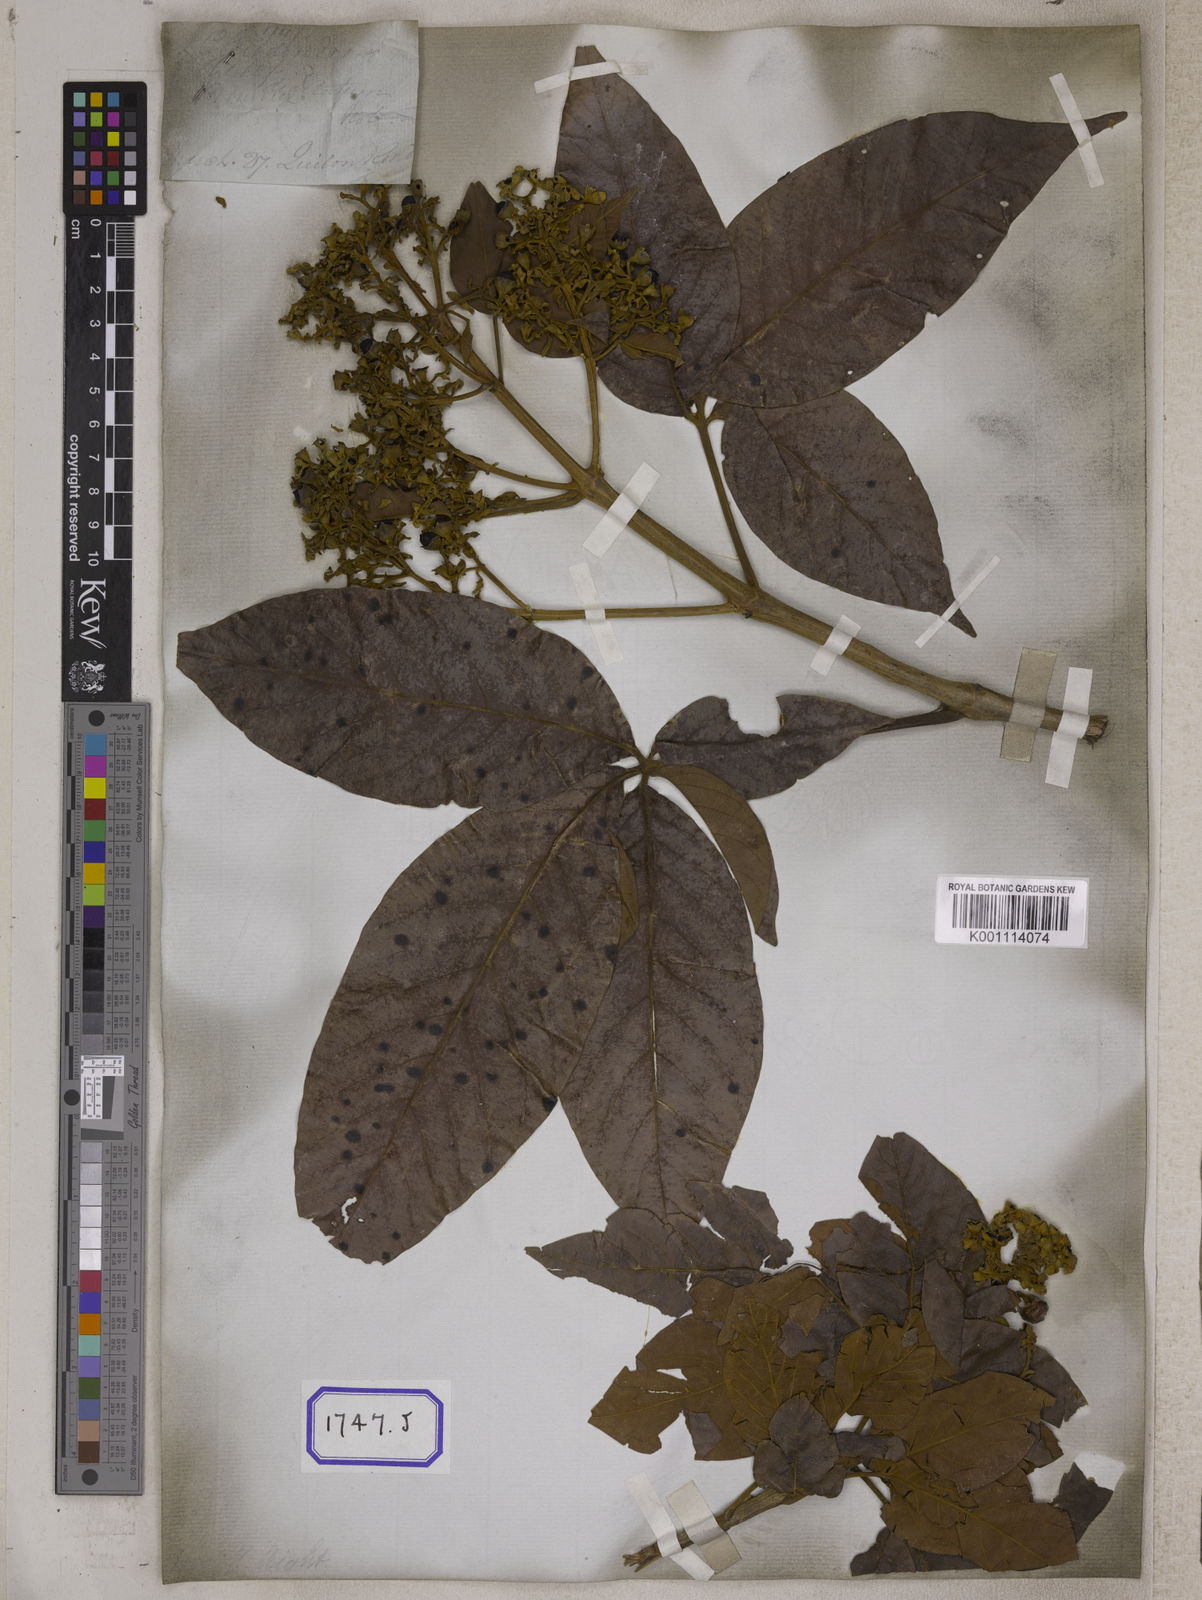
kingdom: Plantae
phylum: Tracheophyta
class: Magnoliopsida
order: Lamiales
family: Lamiaceae
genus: Vitex
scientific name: Vitex pinnata
